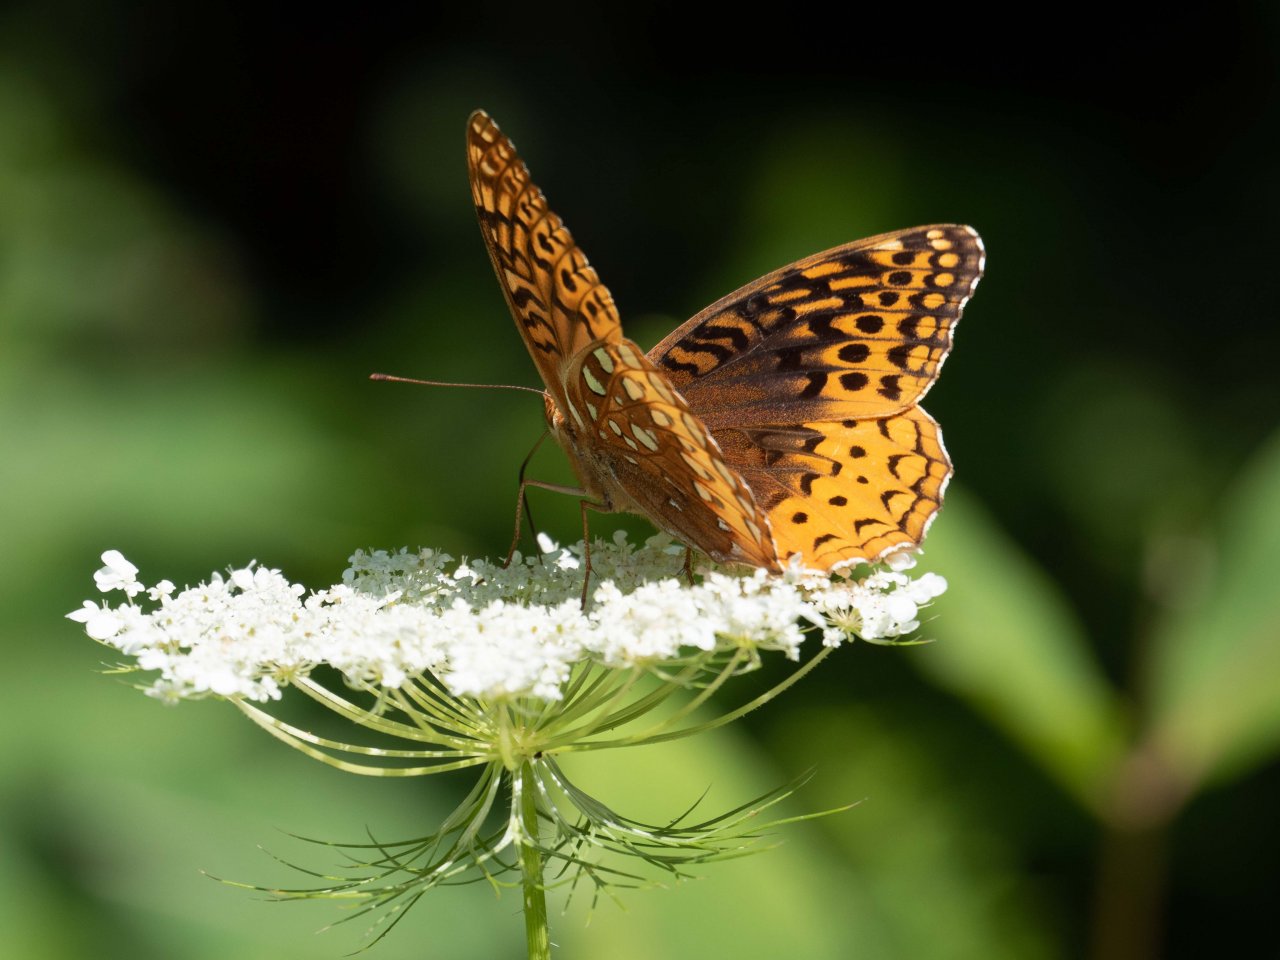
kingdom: Animalia
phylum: Arthropoda
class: Insecta
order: Lepidoptera
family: Nymphalidae
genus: Speyeria
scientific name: Speyeria cybele
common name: Great Spangled Fritillary
